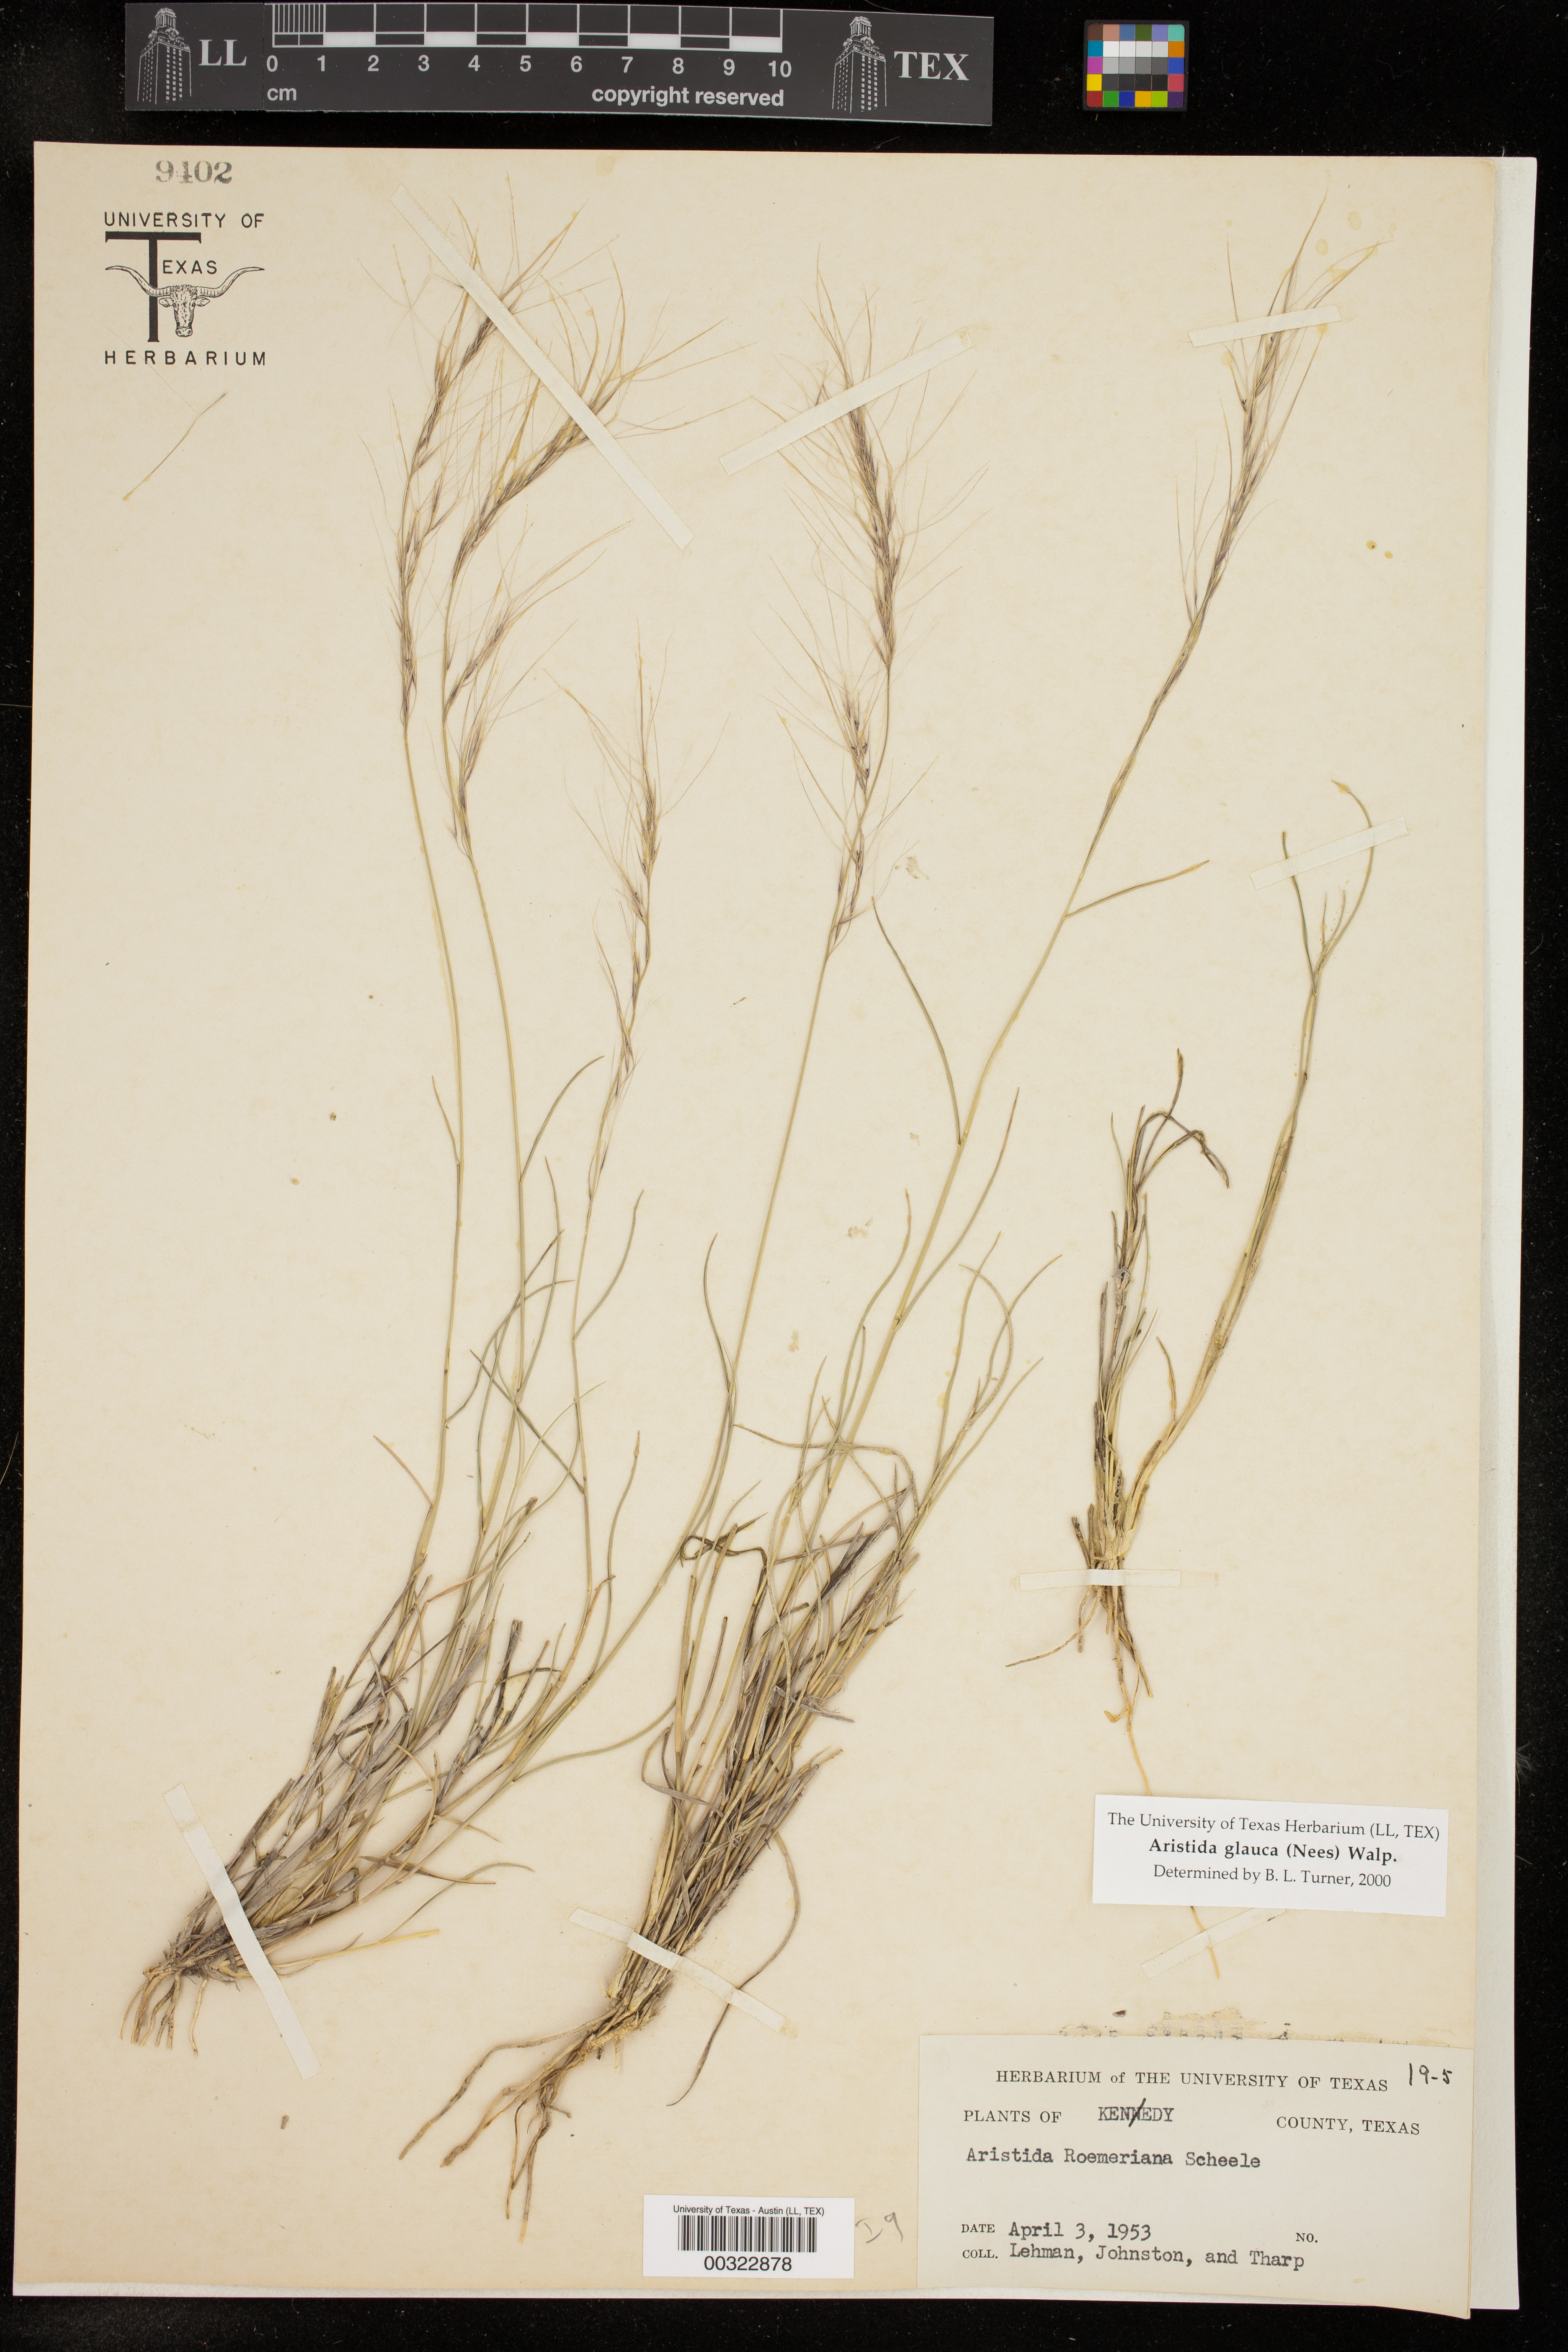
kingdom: Plantae
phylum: Tracheophyta
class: Liliopsida
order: Poales
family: Poaceae
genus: Aristida
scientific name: Aristida glauca
